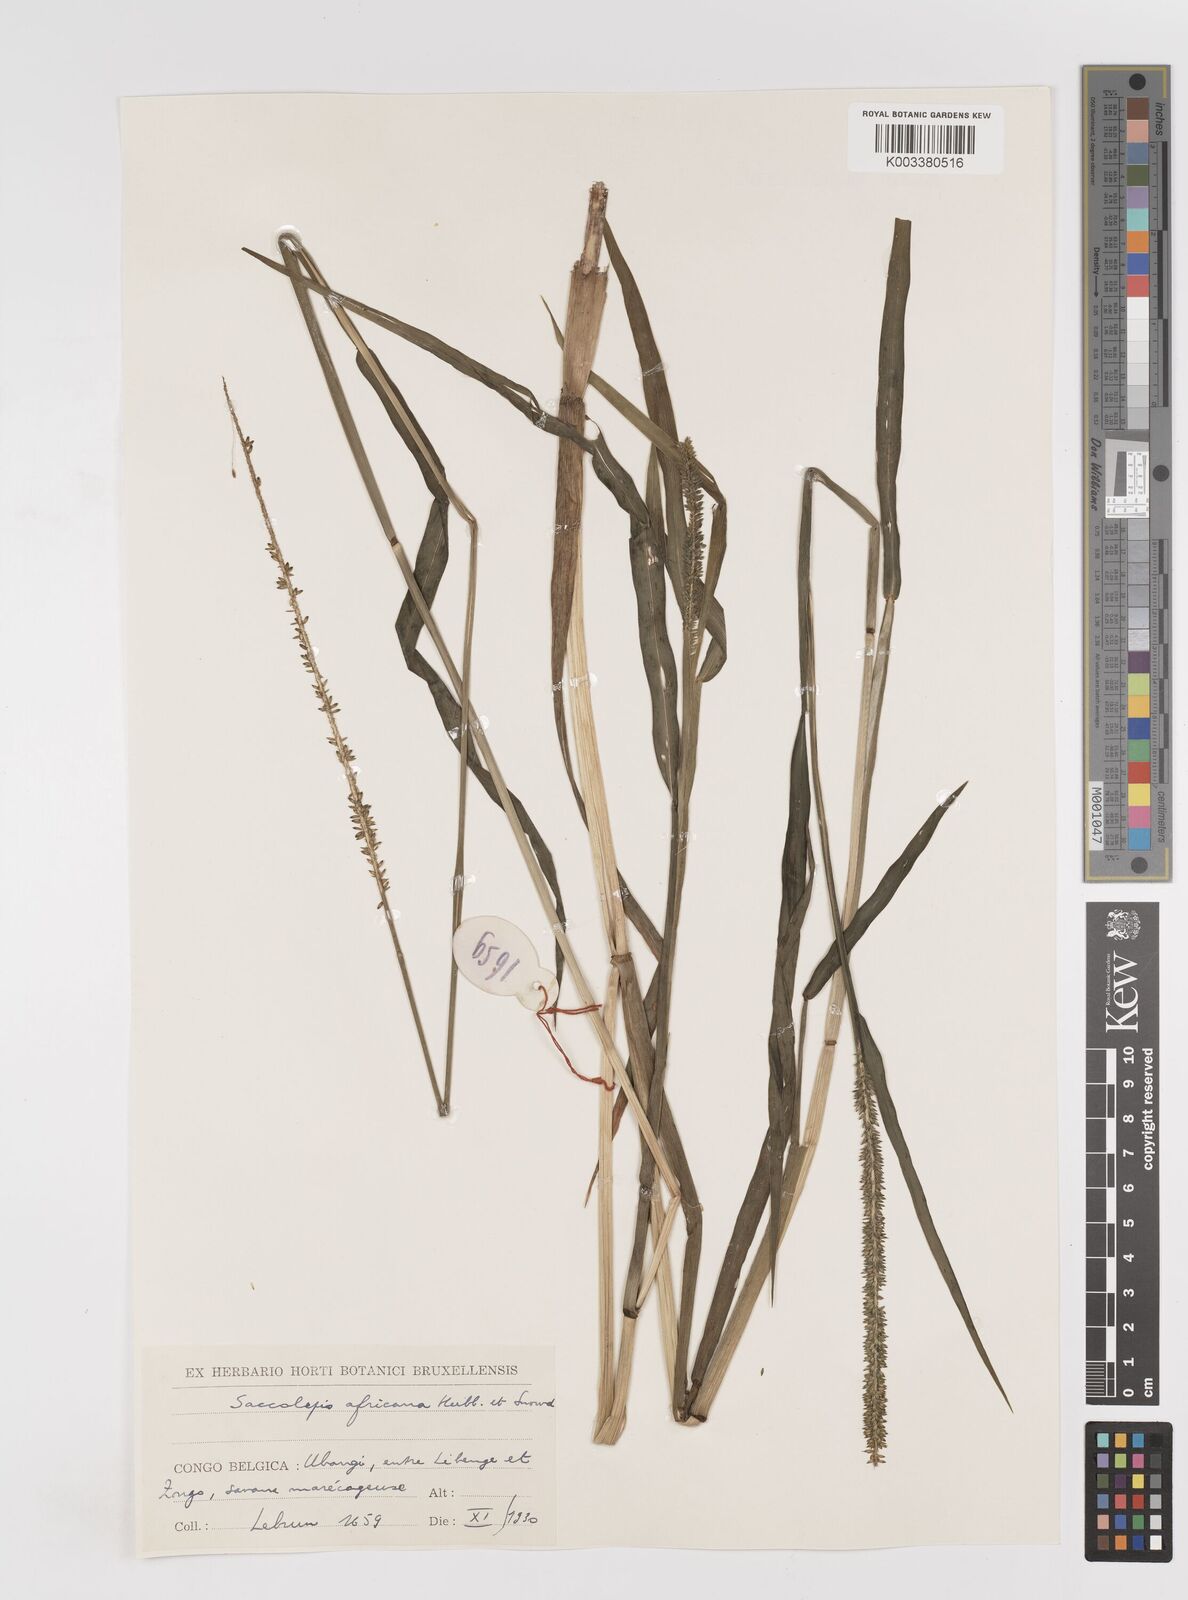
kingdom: Plantae
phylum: Tracheophyta
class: Liliopsida
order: Poales
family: Poaceae
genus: Sacciolepis
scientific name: Sacciolepis africana
